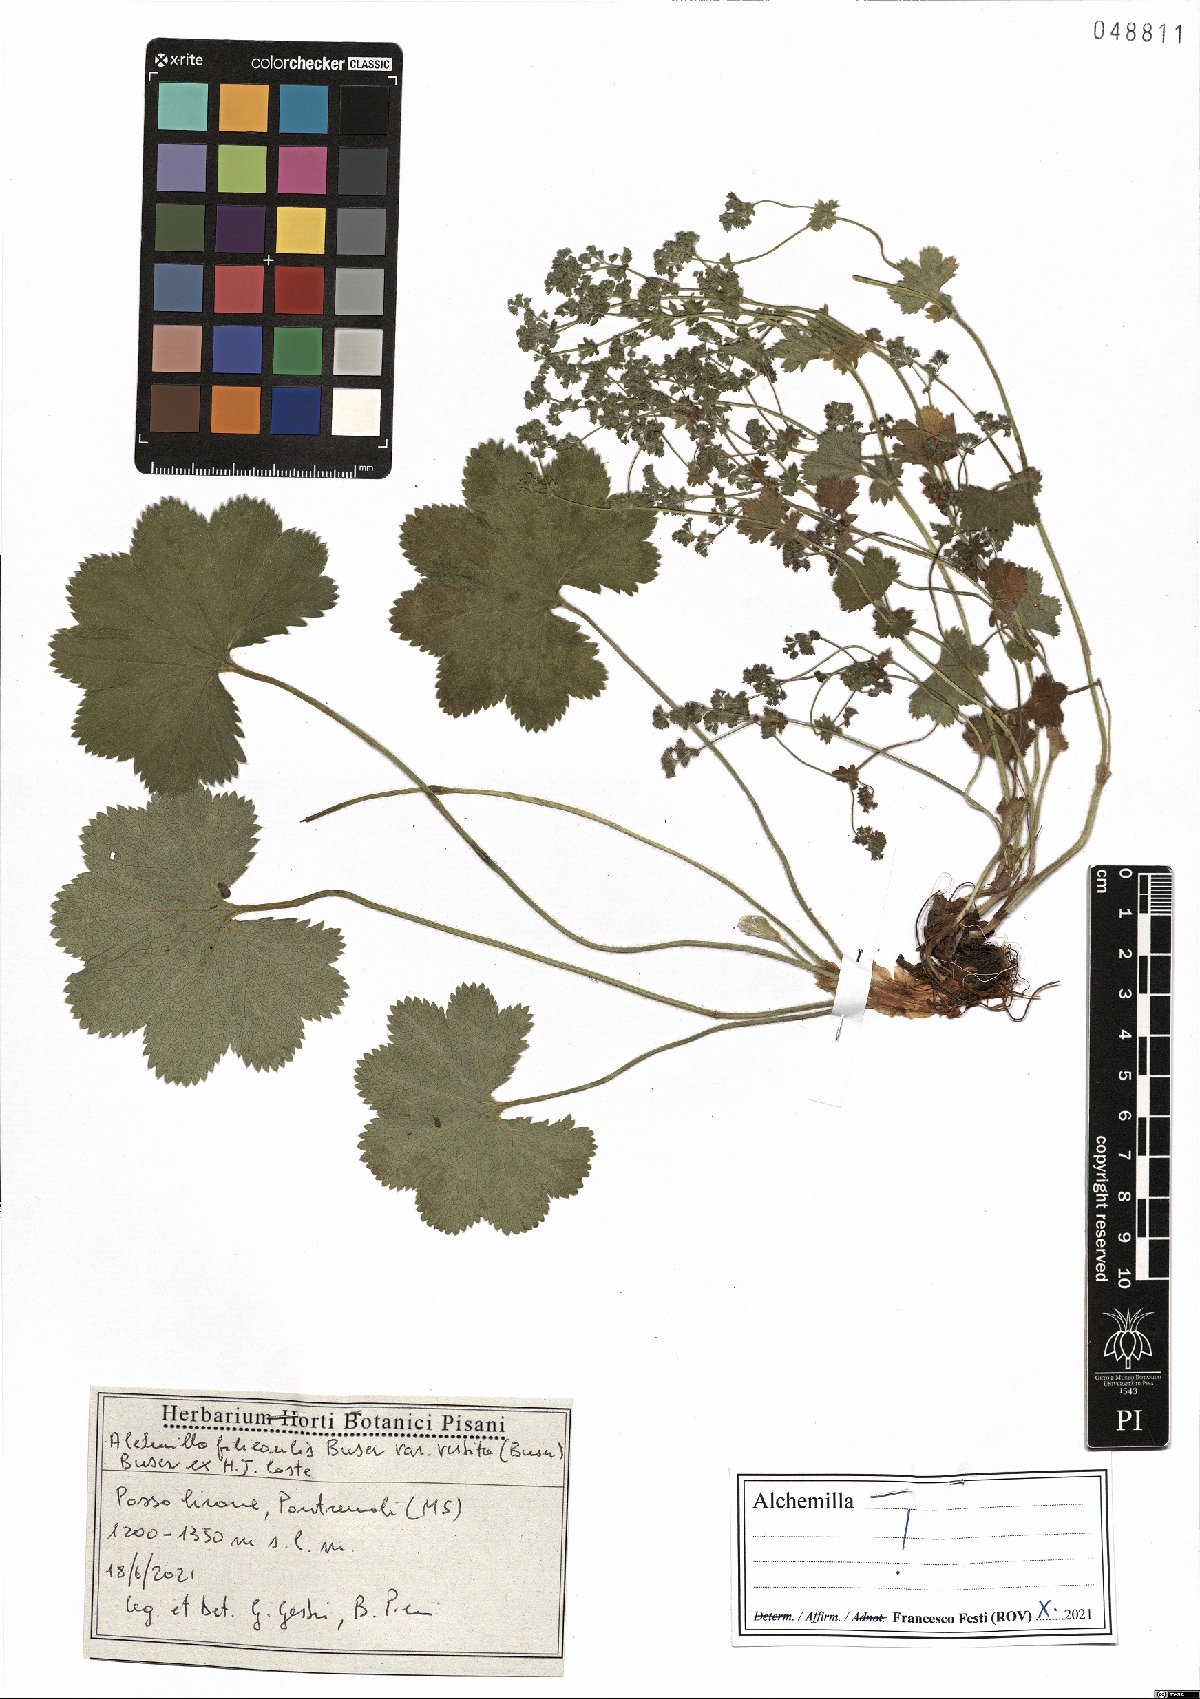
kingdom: Plantae
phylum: Tracheophyta
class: Magnoliopsida
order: Rosales
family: Rosaceae
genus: Alchemilla
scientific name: Alchemilla filicaulis
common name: Hairy lady's-mantle
